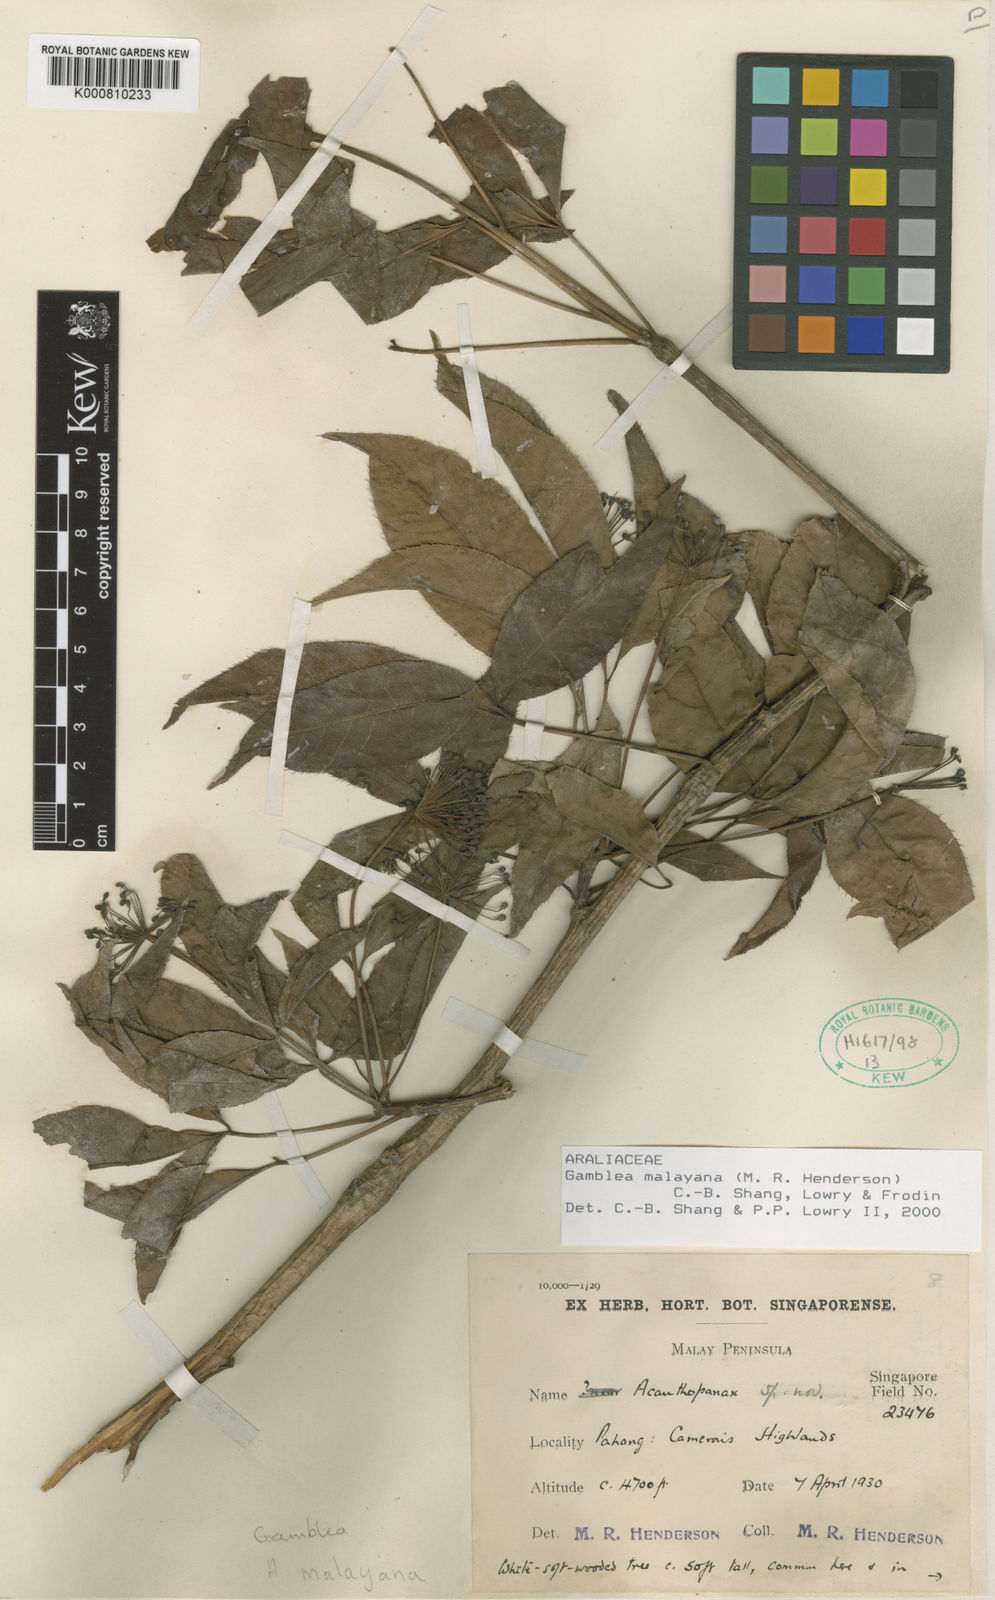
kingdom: Plantae
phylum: Tracheophyta
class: Magnoliopsida
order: Apiales
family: Araliaceae
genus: Gamblea
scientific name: Gamblea malayana
